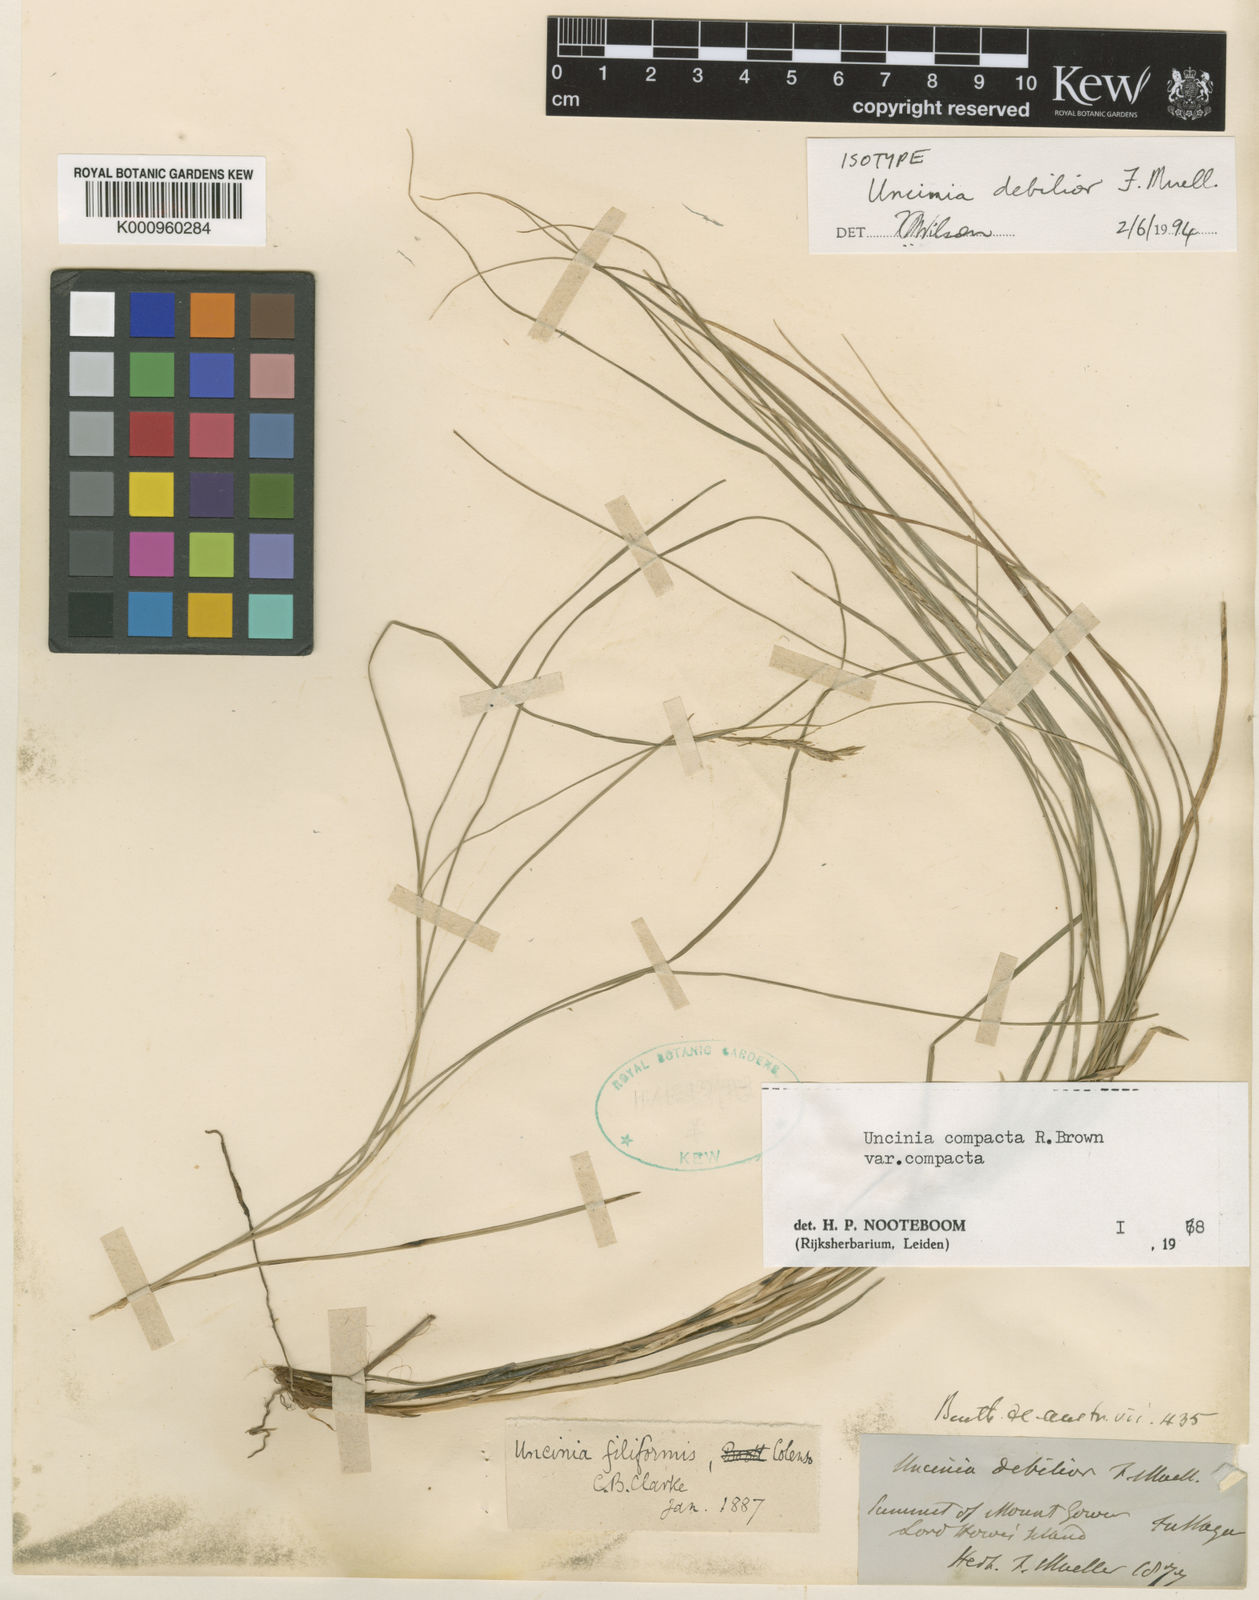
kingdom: Plantae
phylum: Tracheophyta
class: Liliopsida
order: Poales
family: Cyperaceae
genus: Carex
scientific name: Carex debilior
